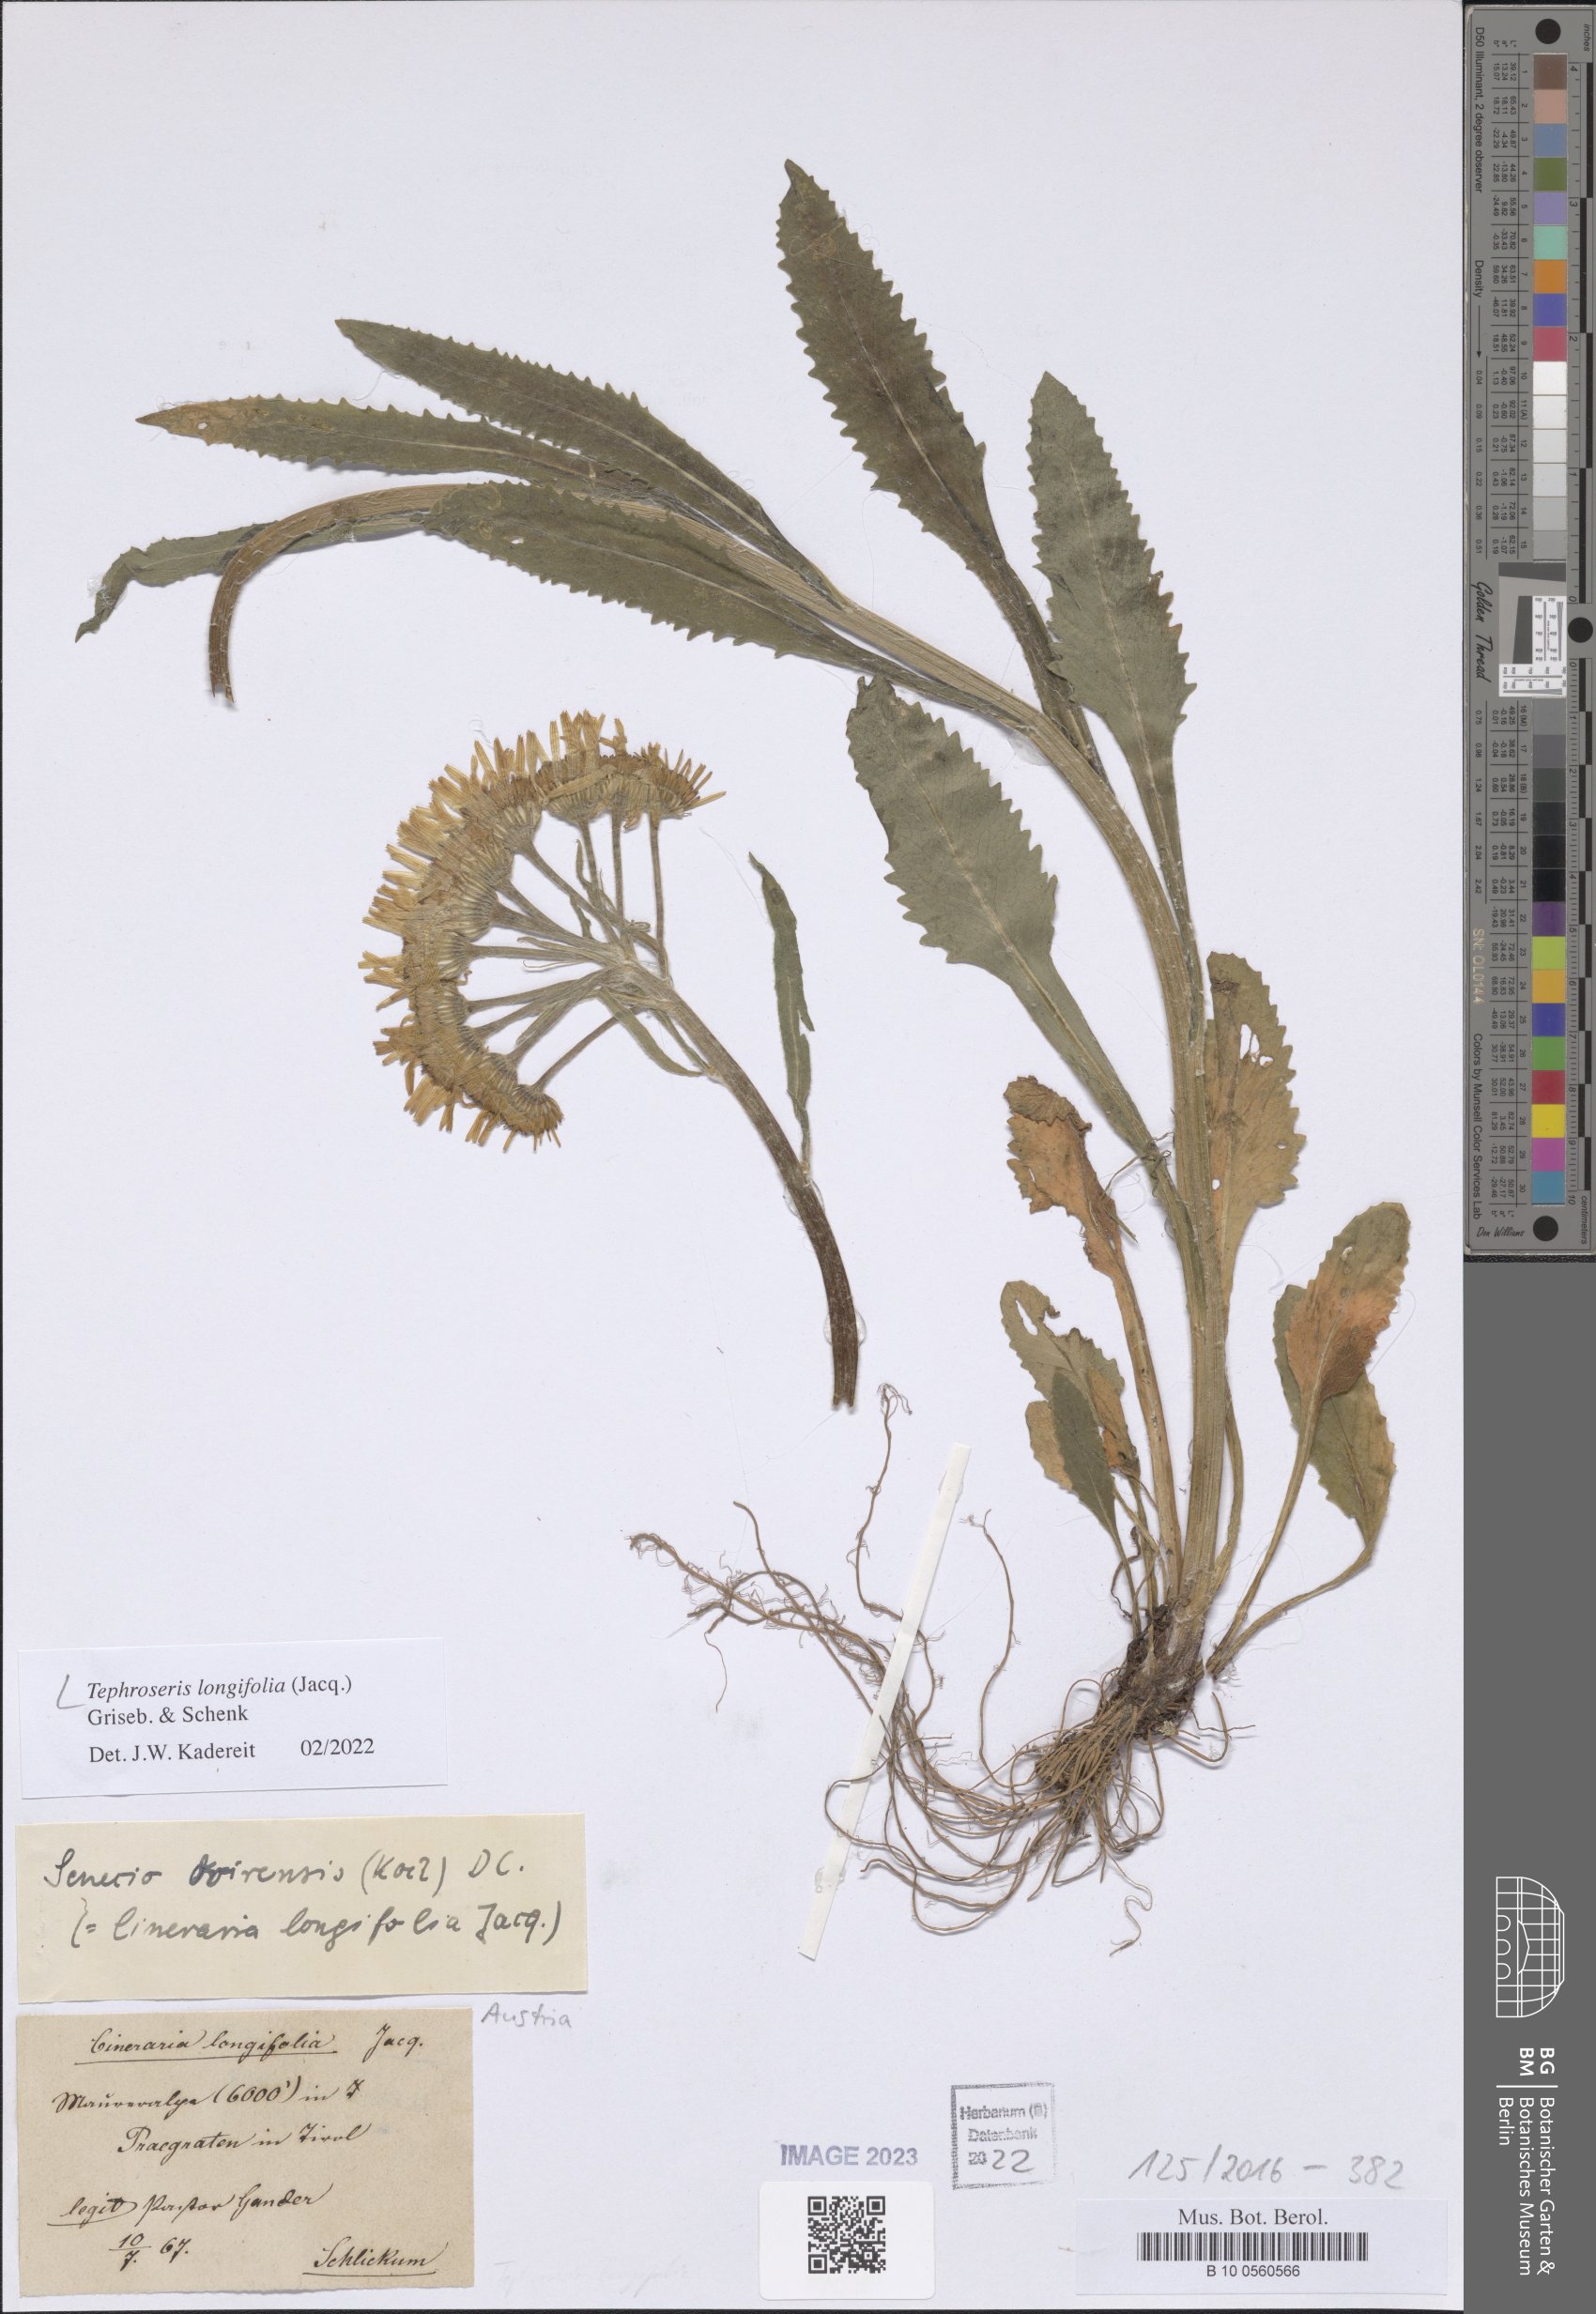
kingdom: Plantae
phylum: Tracheophyta
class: Magnoliopsida
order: Asterales
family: Asteraceae
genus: Tephroseris
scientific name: Tephroseris longifolia
